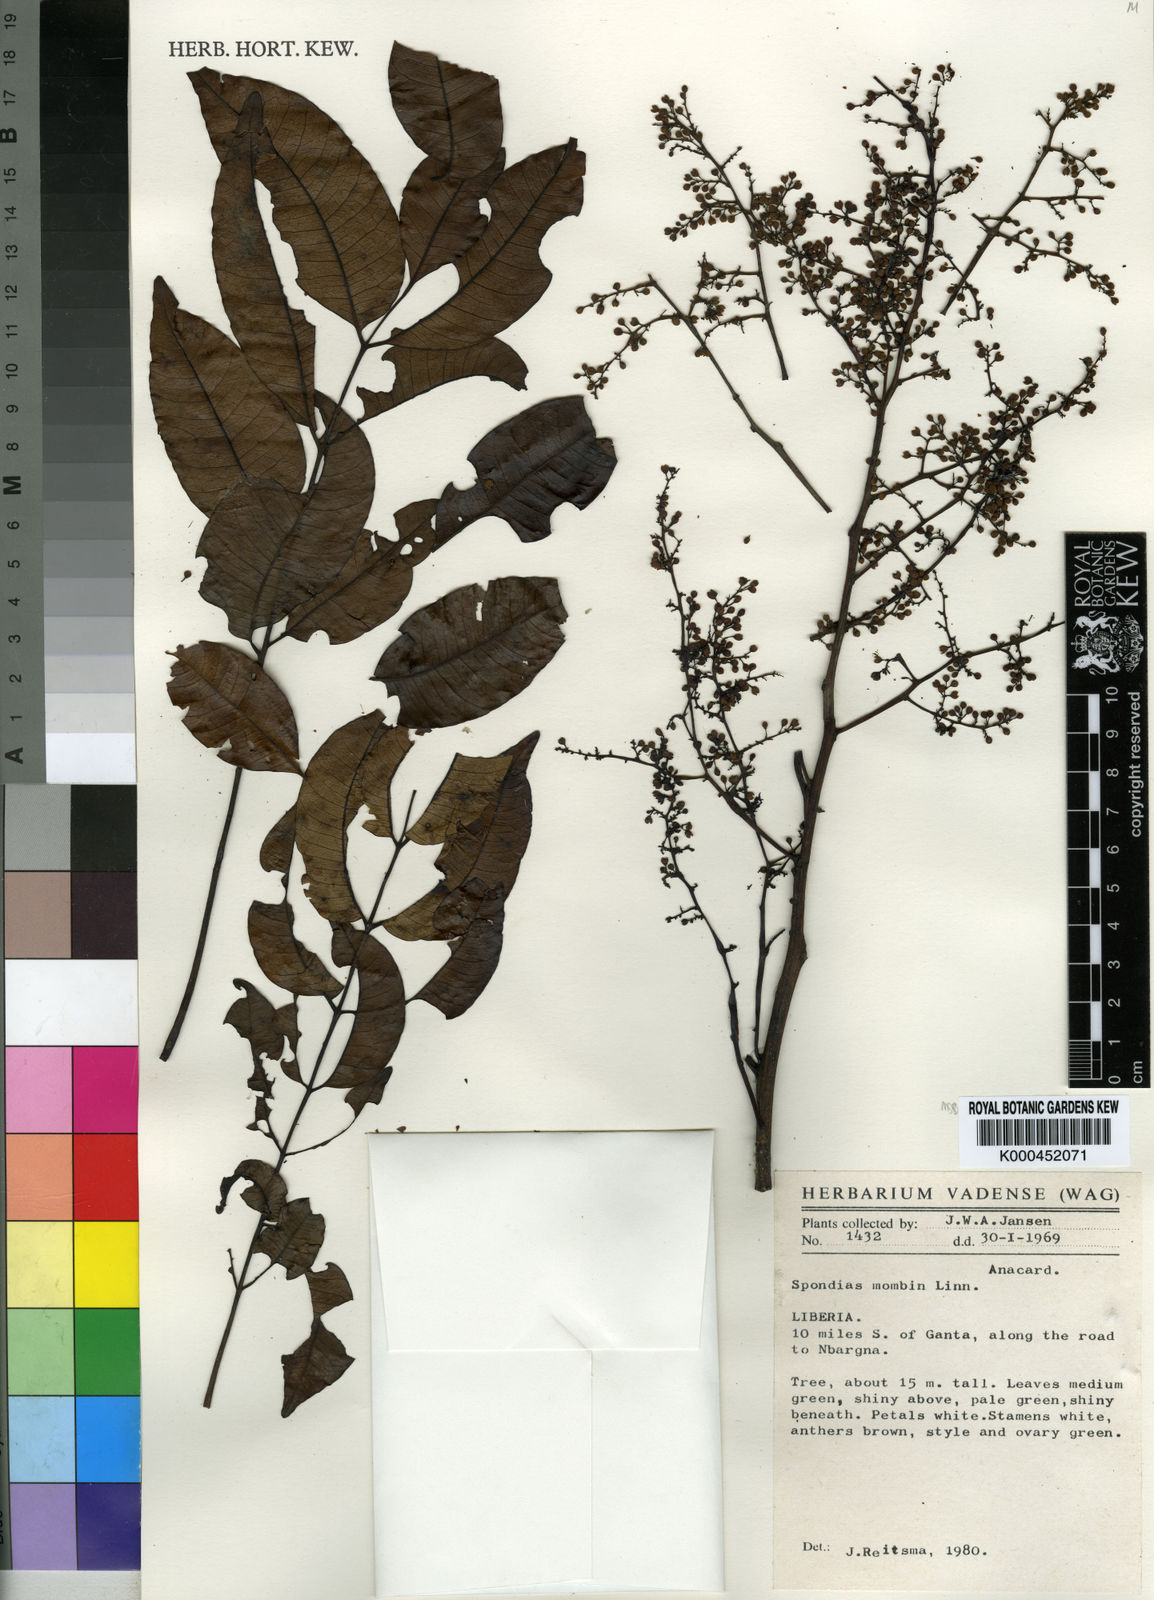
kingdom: Plantae
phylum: Tracheophyta
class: Magnoliopsida
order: Sapindales
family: Anacardiaceae
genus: Spondias
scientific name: Spondias mombin
